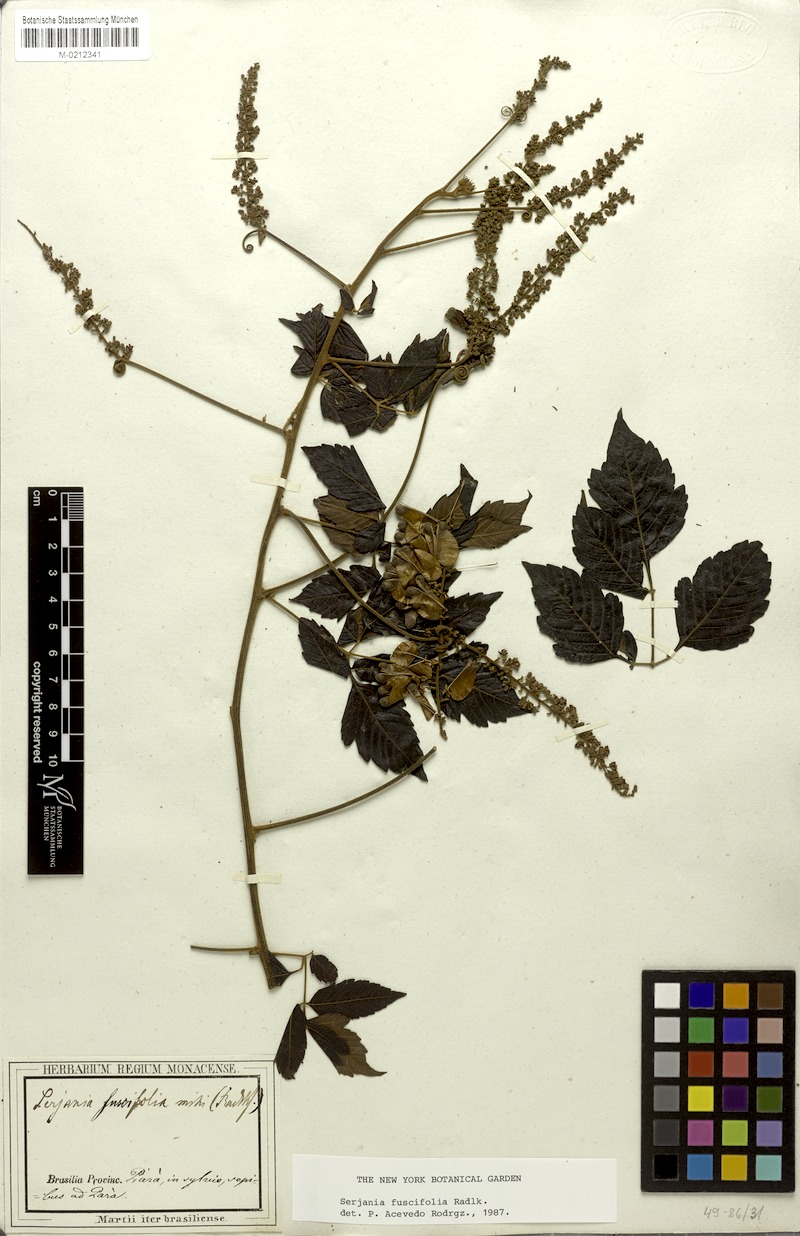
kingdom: Plantae
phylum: Tracheophyta
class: Magnoliopsida
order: Sapindales
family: Sapindaceae
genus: Serjania
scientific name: Serjania fuscifolia
